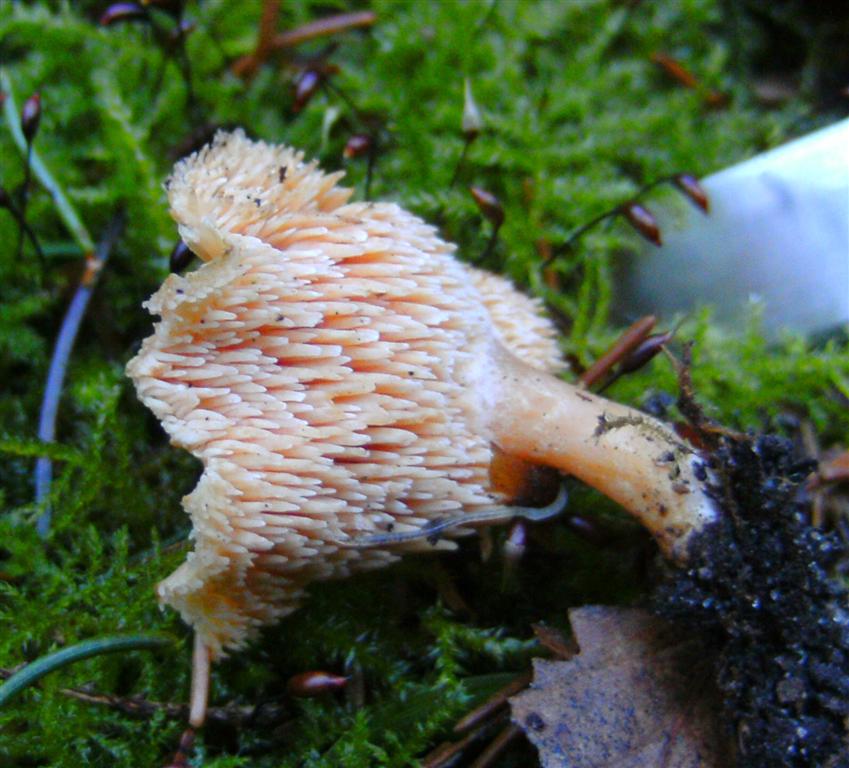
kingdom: Fungi
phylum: Basidiomycota
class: Agaricomycetes
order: Cantharellales
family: Hydnaceae
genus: Hydnum
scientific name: Hydnum ellipsosporum
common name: tandet pigsvamp
